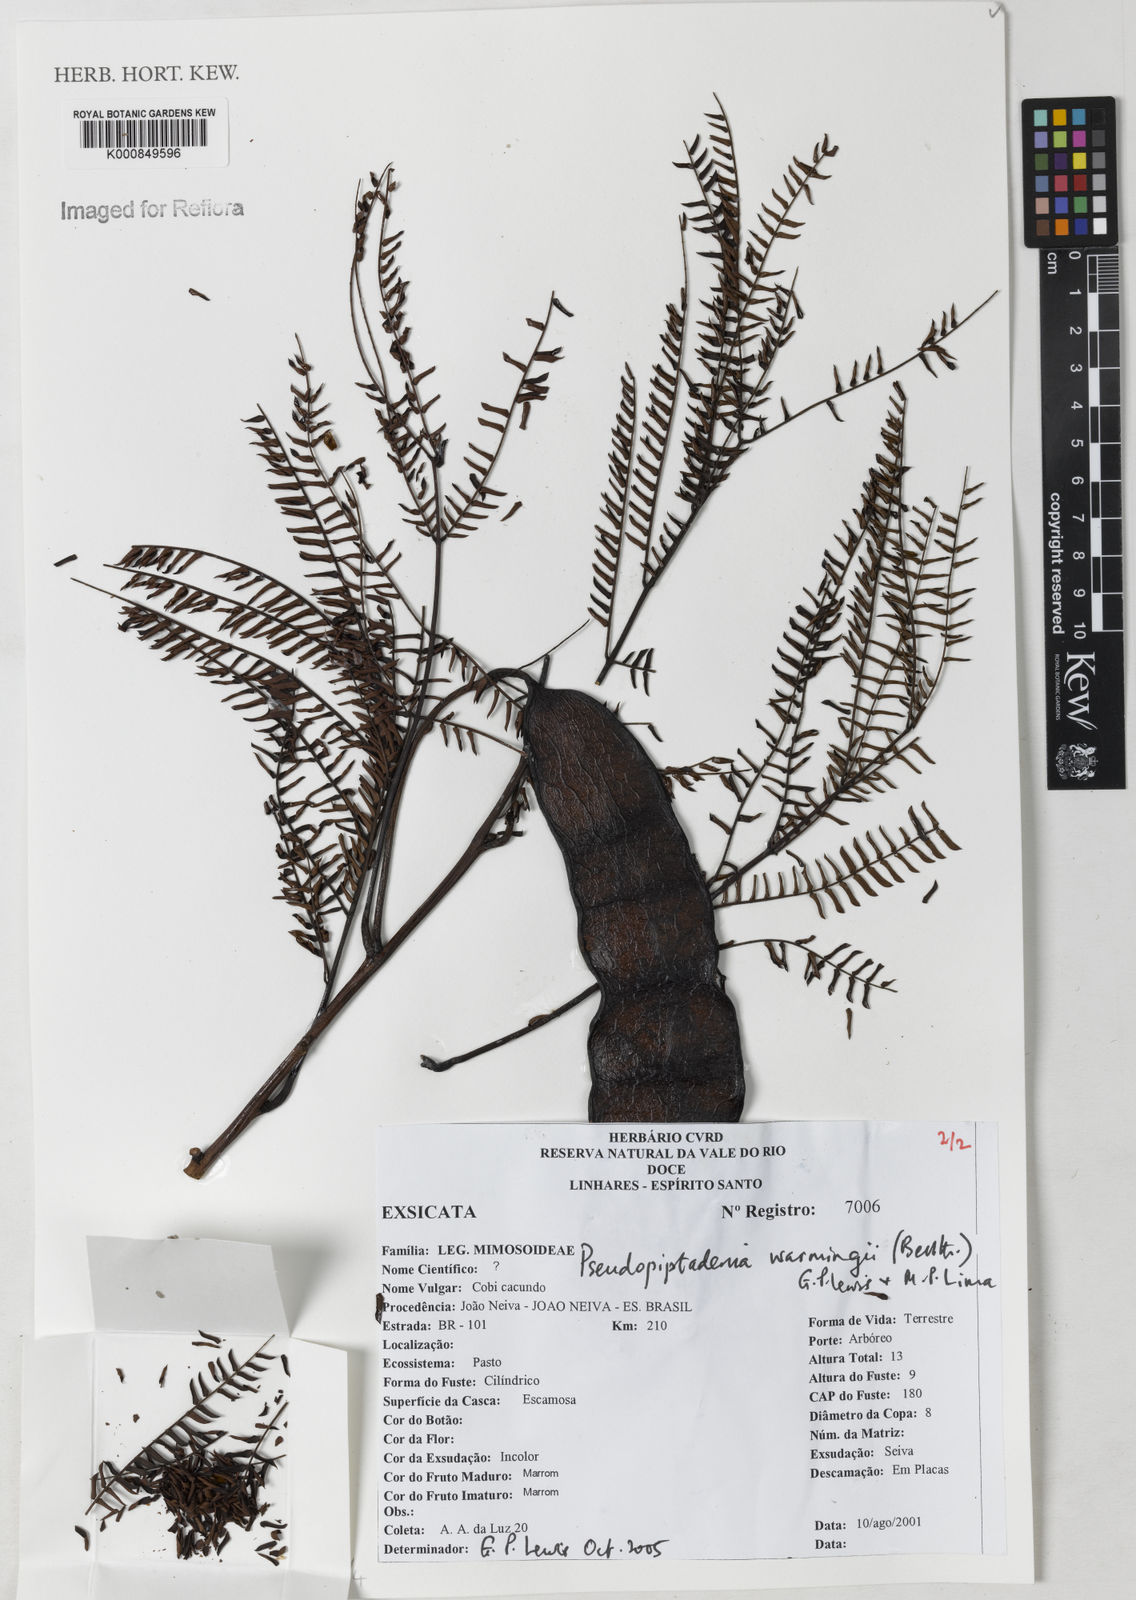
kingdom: Plantae
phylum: Tracheophyta
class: Magnoliopsida
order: Fabales
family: Fabaceae
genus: Pseudopiptadenia
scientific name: Pseudopiptadenia warmingii
